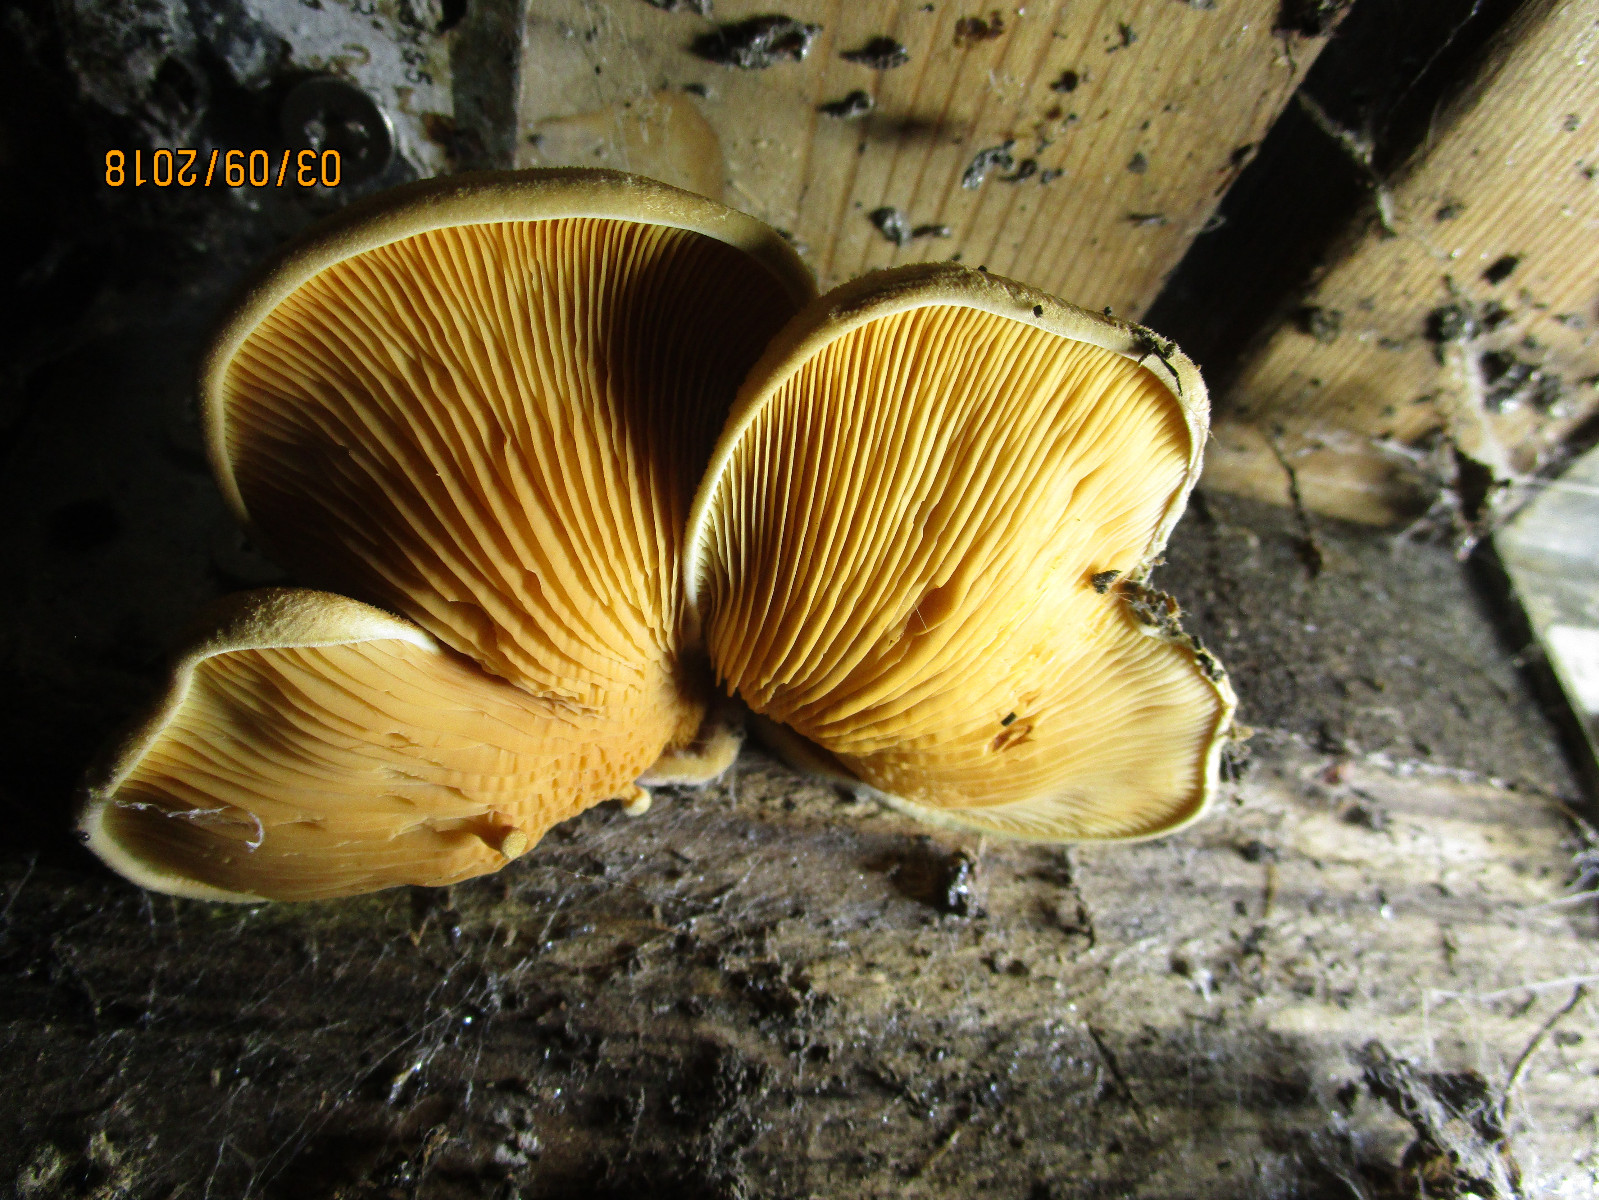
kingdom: Fungi
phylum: Basidiomycota
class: Agaricomycetes
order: Boletales
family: Tapinellaceae
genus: Tapinella
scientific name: Tapinella panuoides
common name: tømmer-viftesvamp
